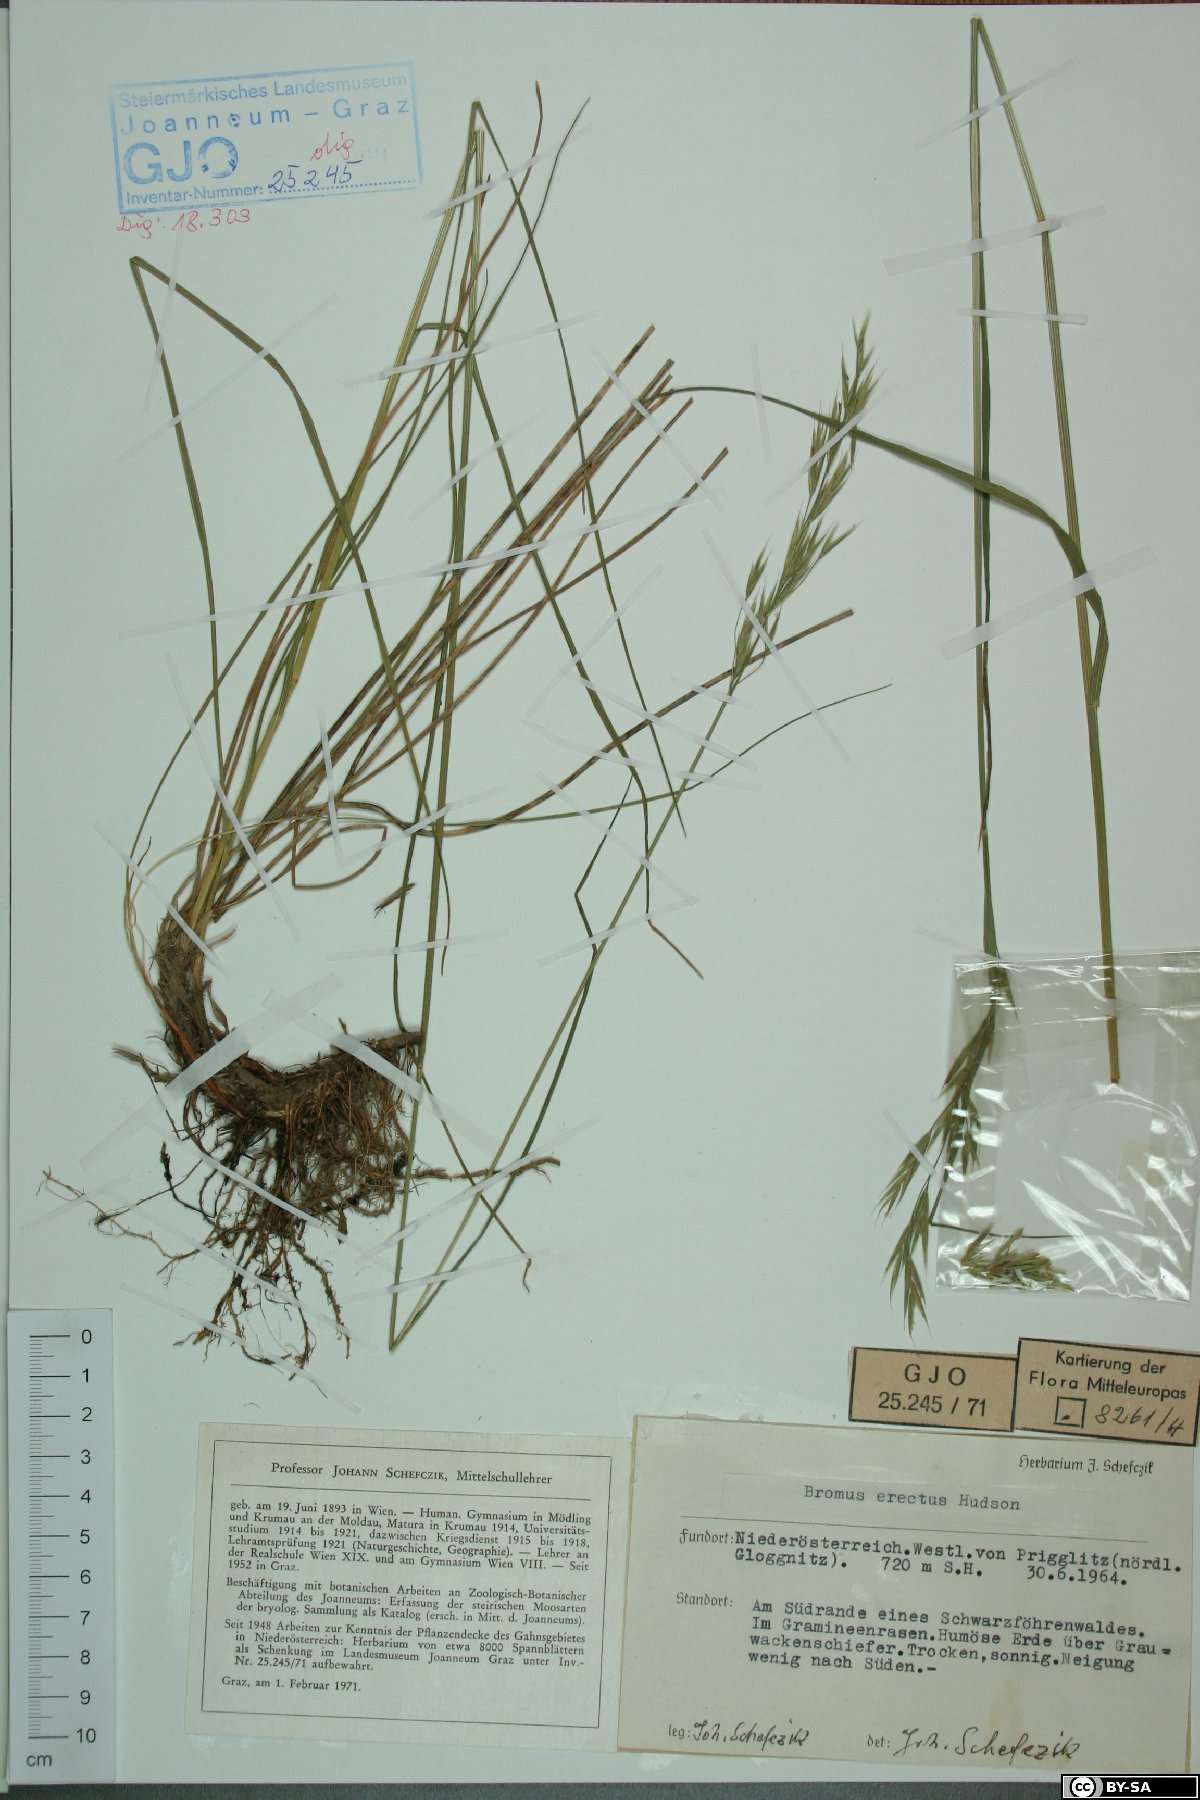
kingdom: Plantae
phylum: Tracheophyta
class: Liliopsida
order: Poales
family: Poaceae
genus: Bromus
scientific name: Bromus erectus
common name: Erect brome
